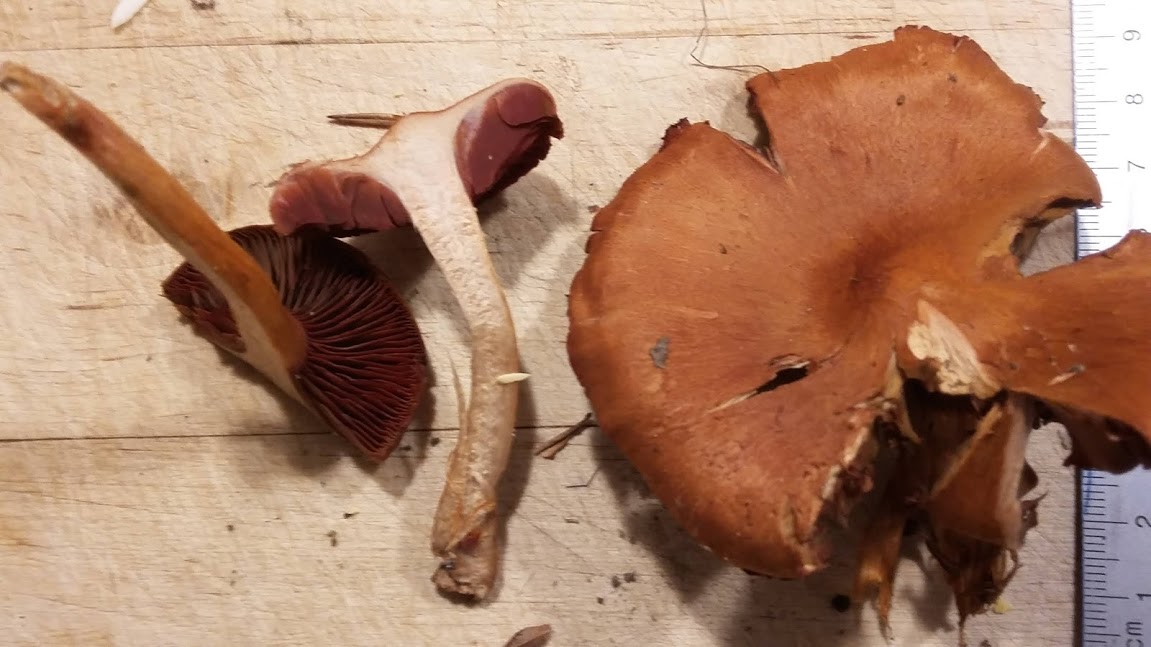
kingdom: Fungi
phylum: Basidiomycota
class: Agaricomycetes
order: Agaricales
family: Cortinariaceae
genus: Cortinarius
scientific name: Cortinarius
